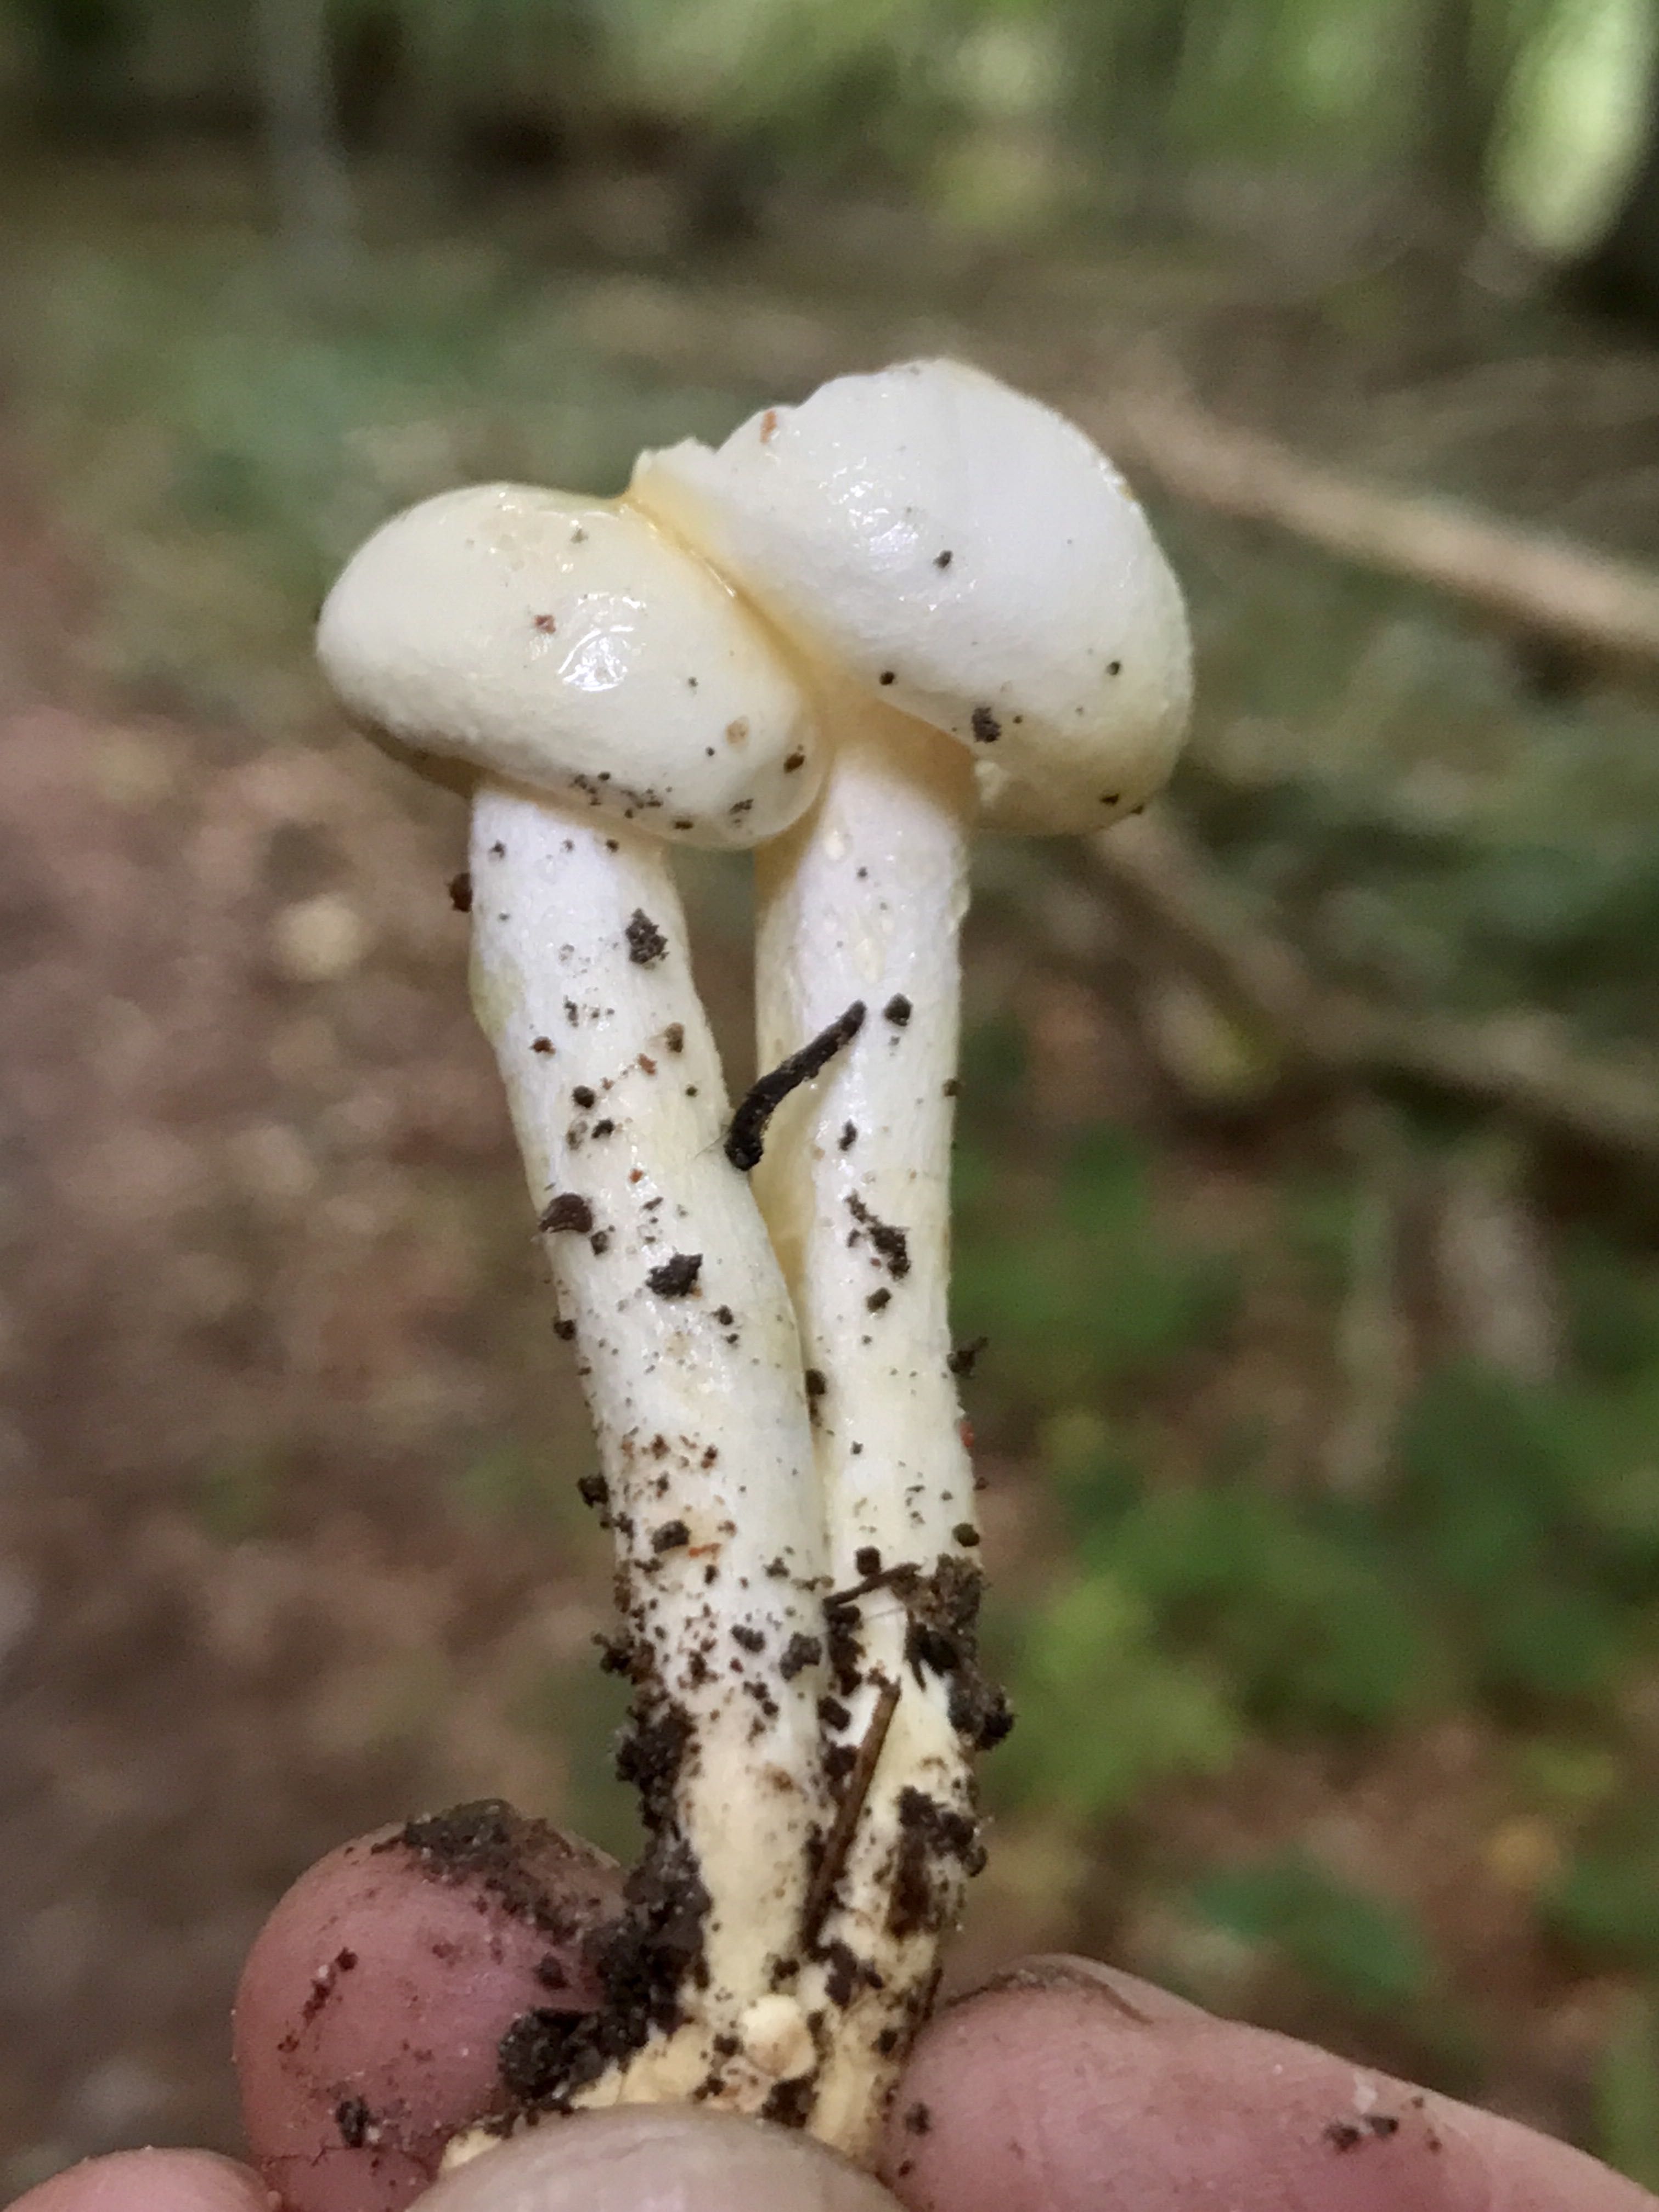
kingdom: Fungi
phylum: Basidiomycota
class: Agaricomycetes
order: Agaricales
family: Hygrophoraceae
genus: Hygrophorus
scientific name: Hygrophorus discoxanthus
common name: ildelugtende sneglehat
